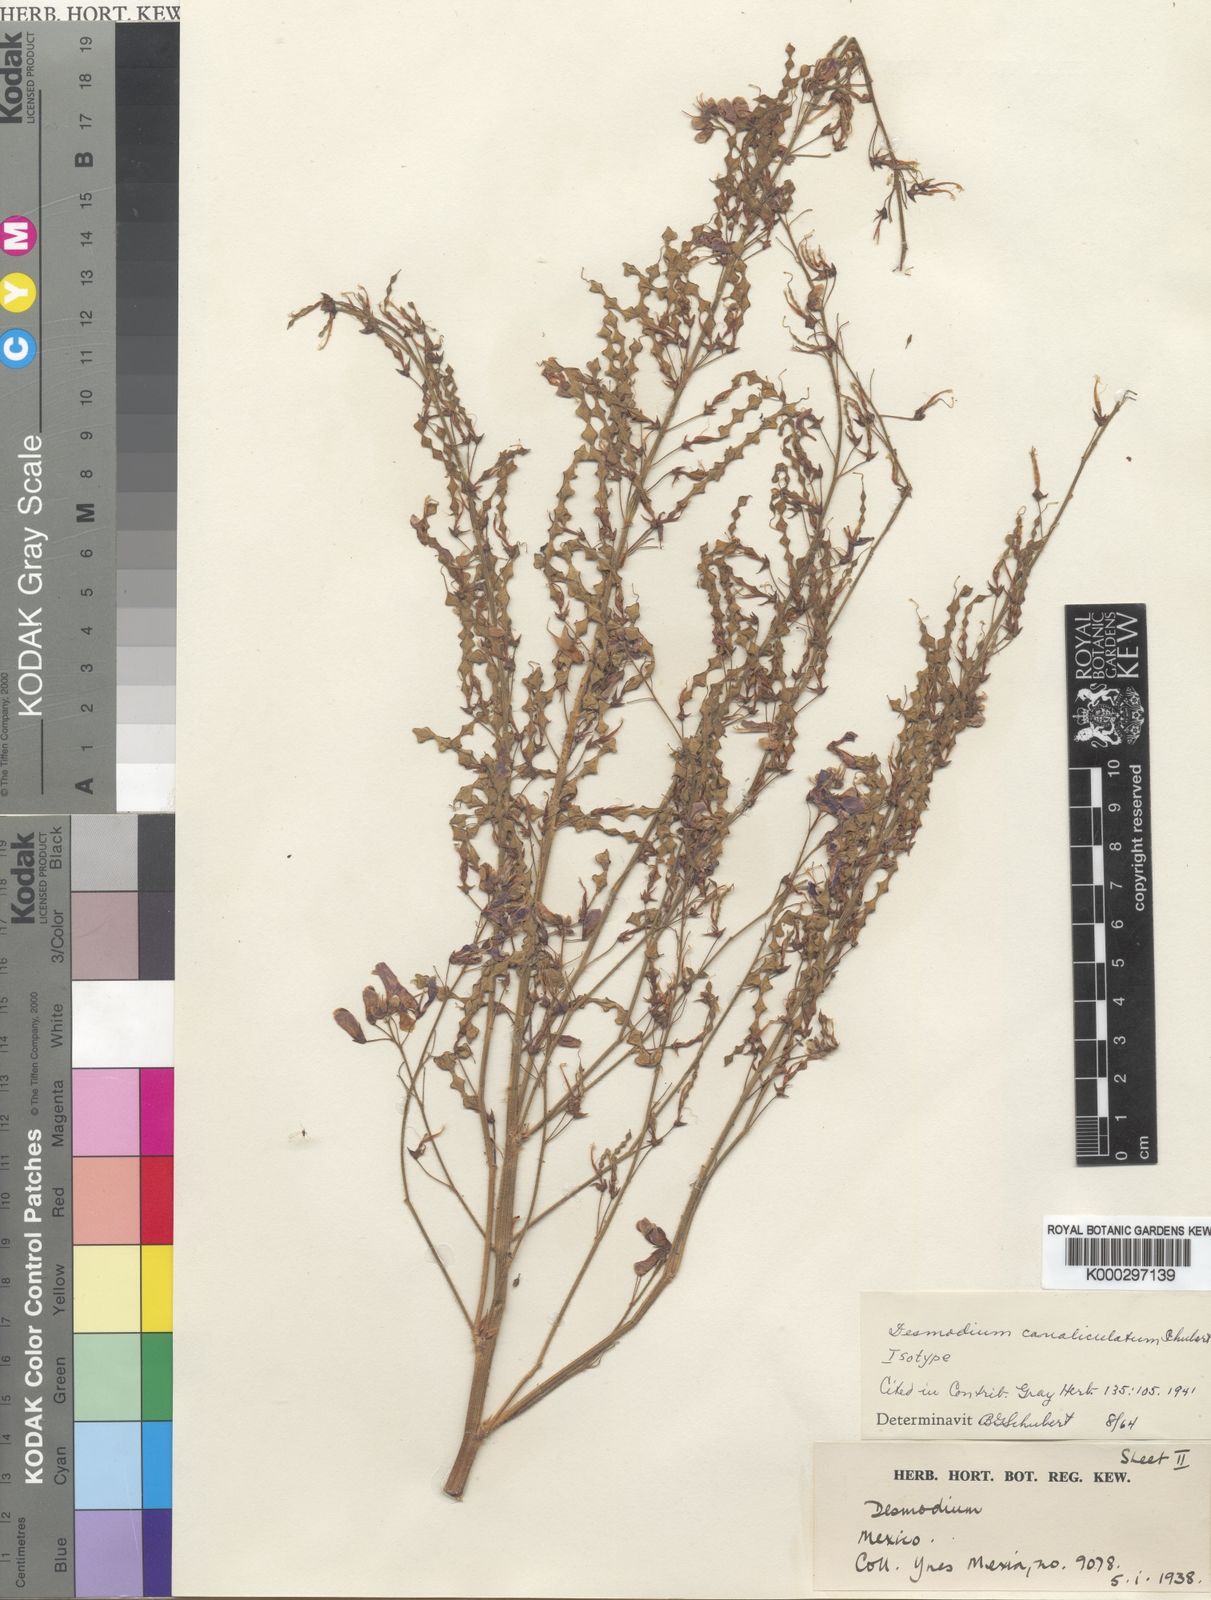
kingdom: Plantae
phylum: Tracheophyta
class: Magnoliopsida
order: Fabales
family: Fabaceae
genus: Desmodium
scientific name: Desmodium canaliculatum
